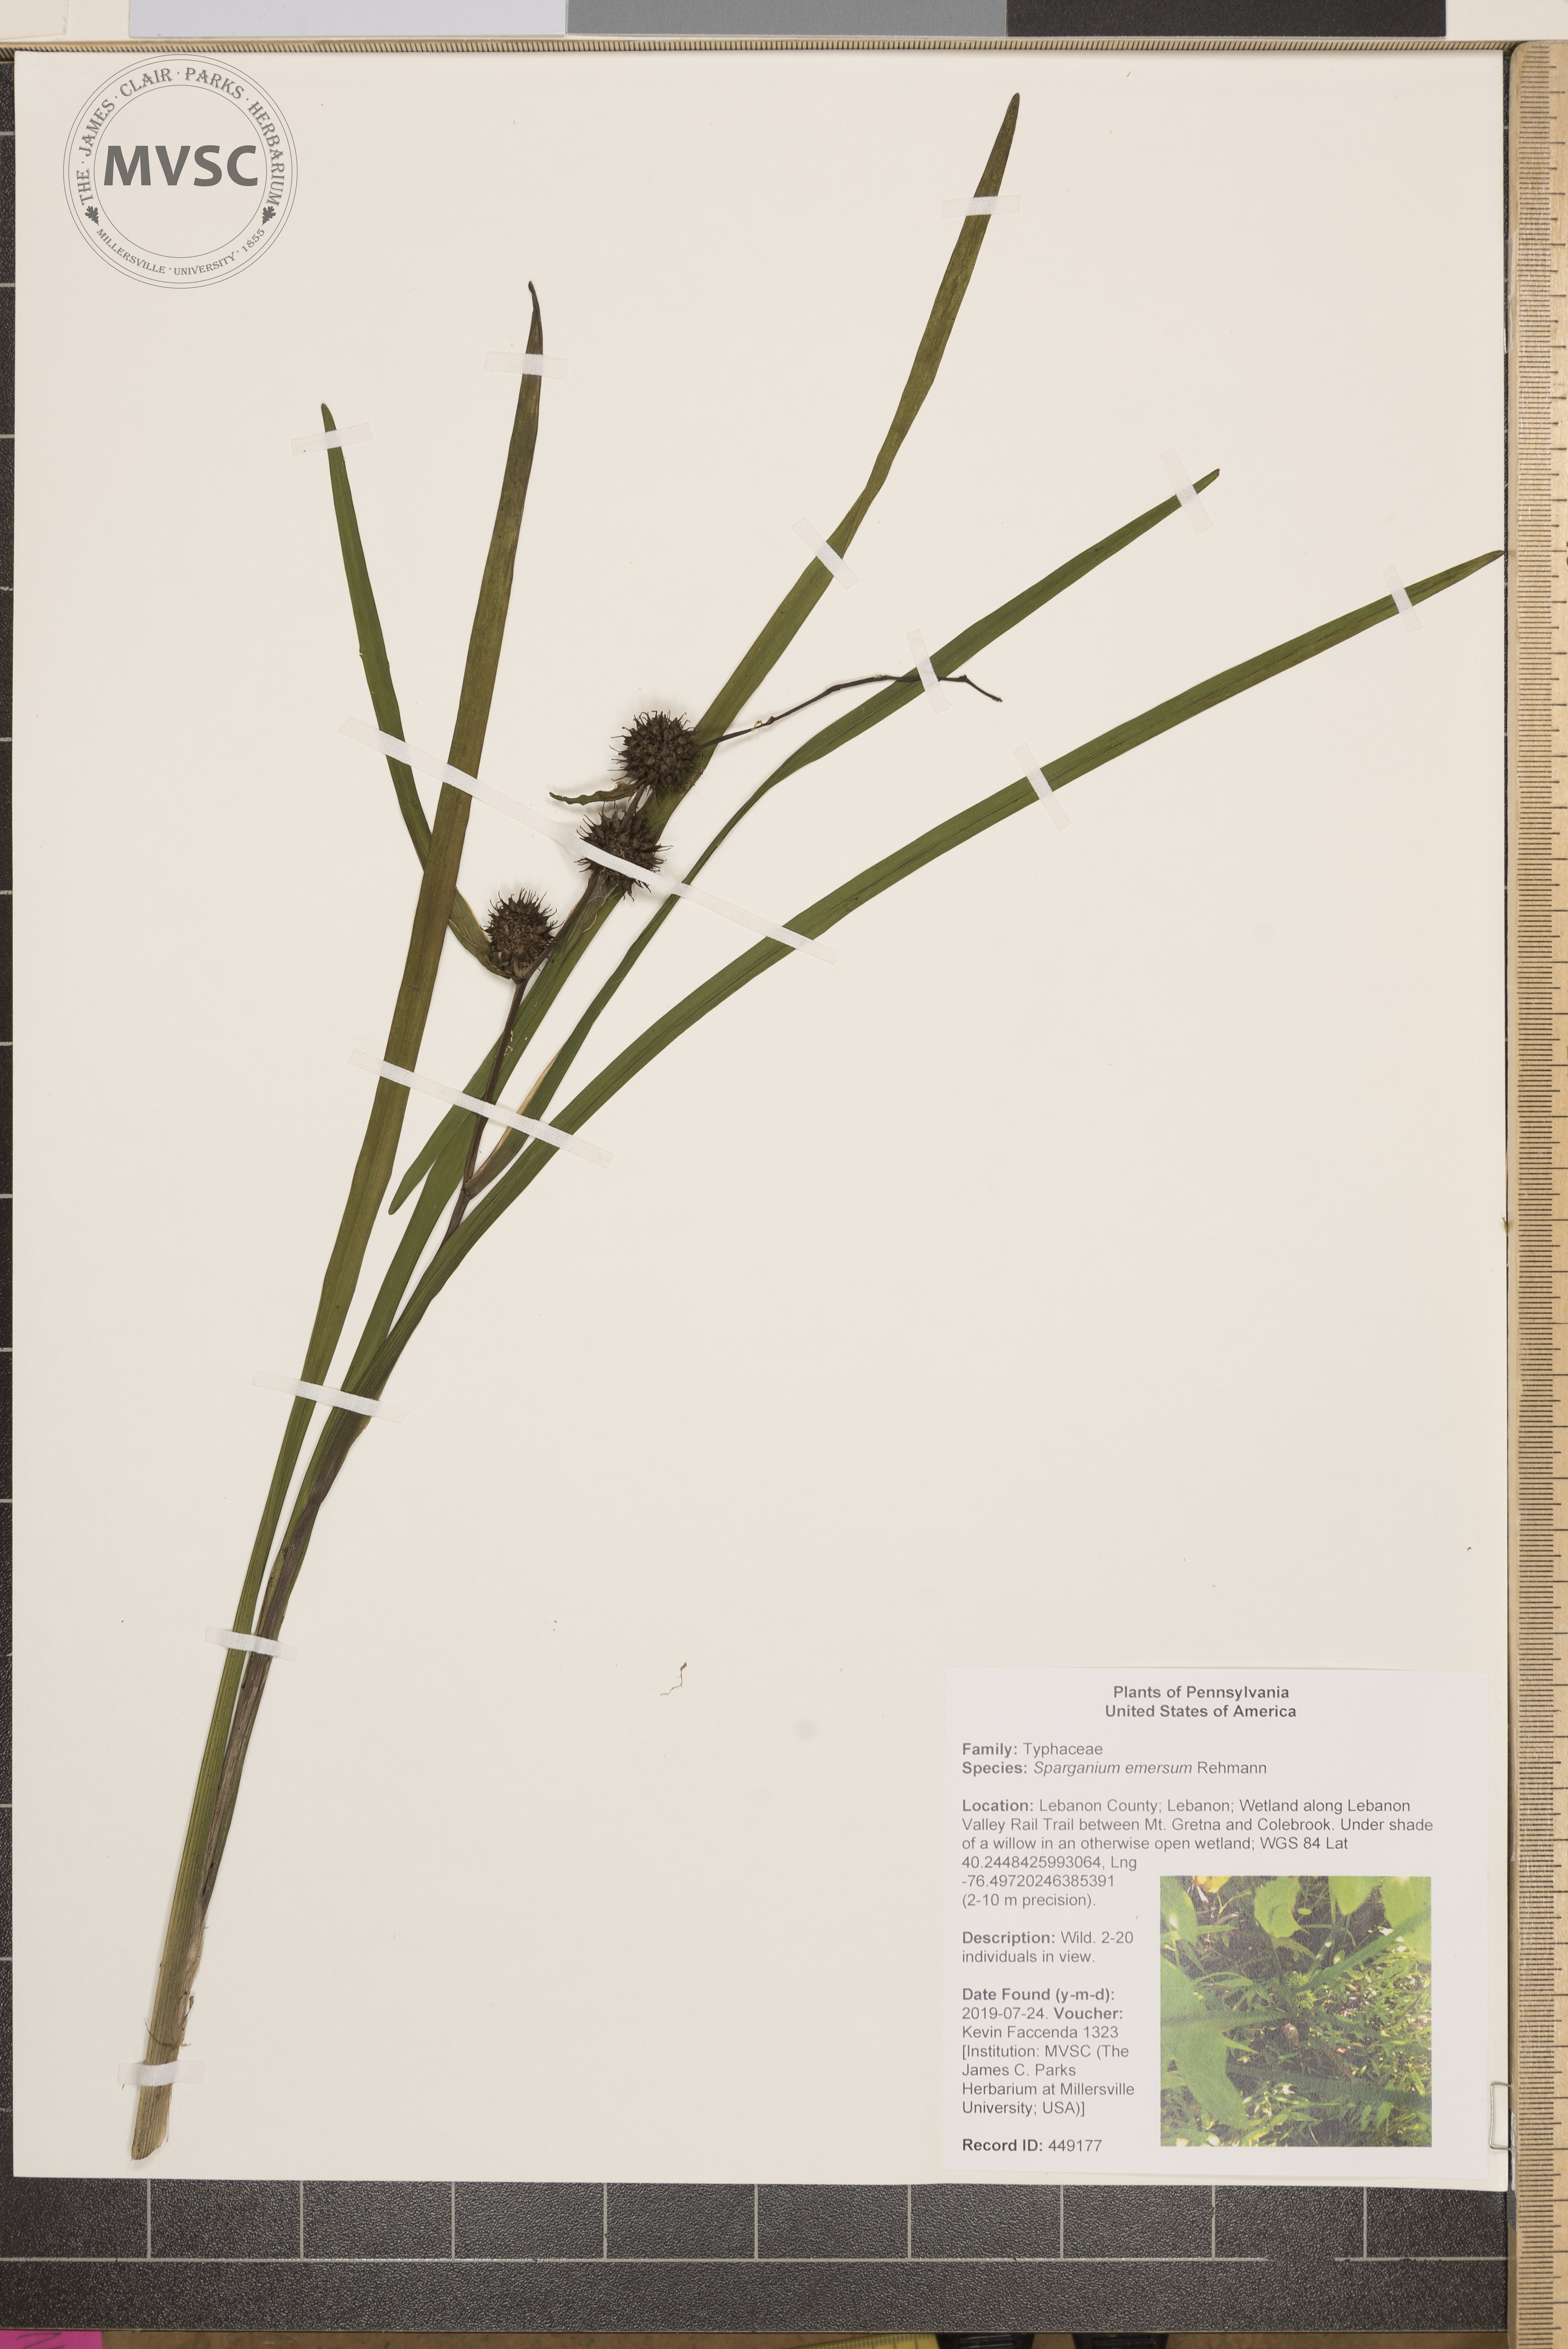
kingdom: Plantae
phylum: Tracheophyta
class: Liliopsida
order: Poales
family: Typhaceae
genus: Sparganium
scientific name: Sparganium emersum
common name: Unbranched bur-reed
